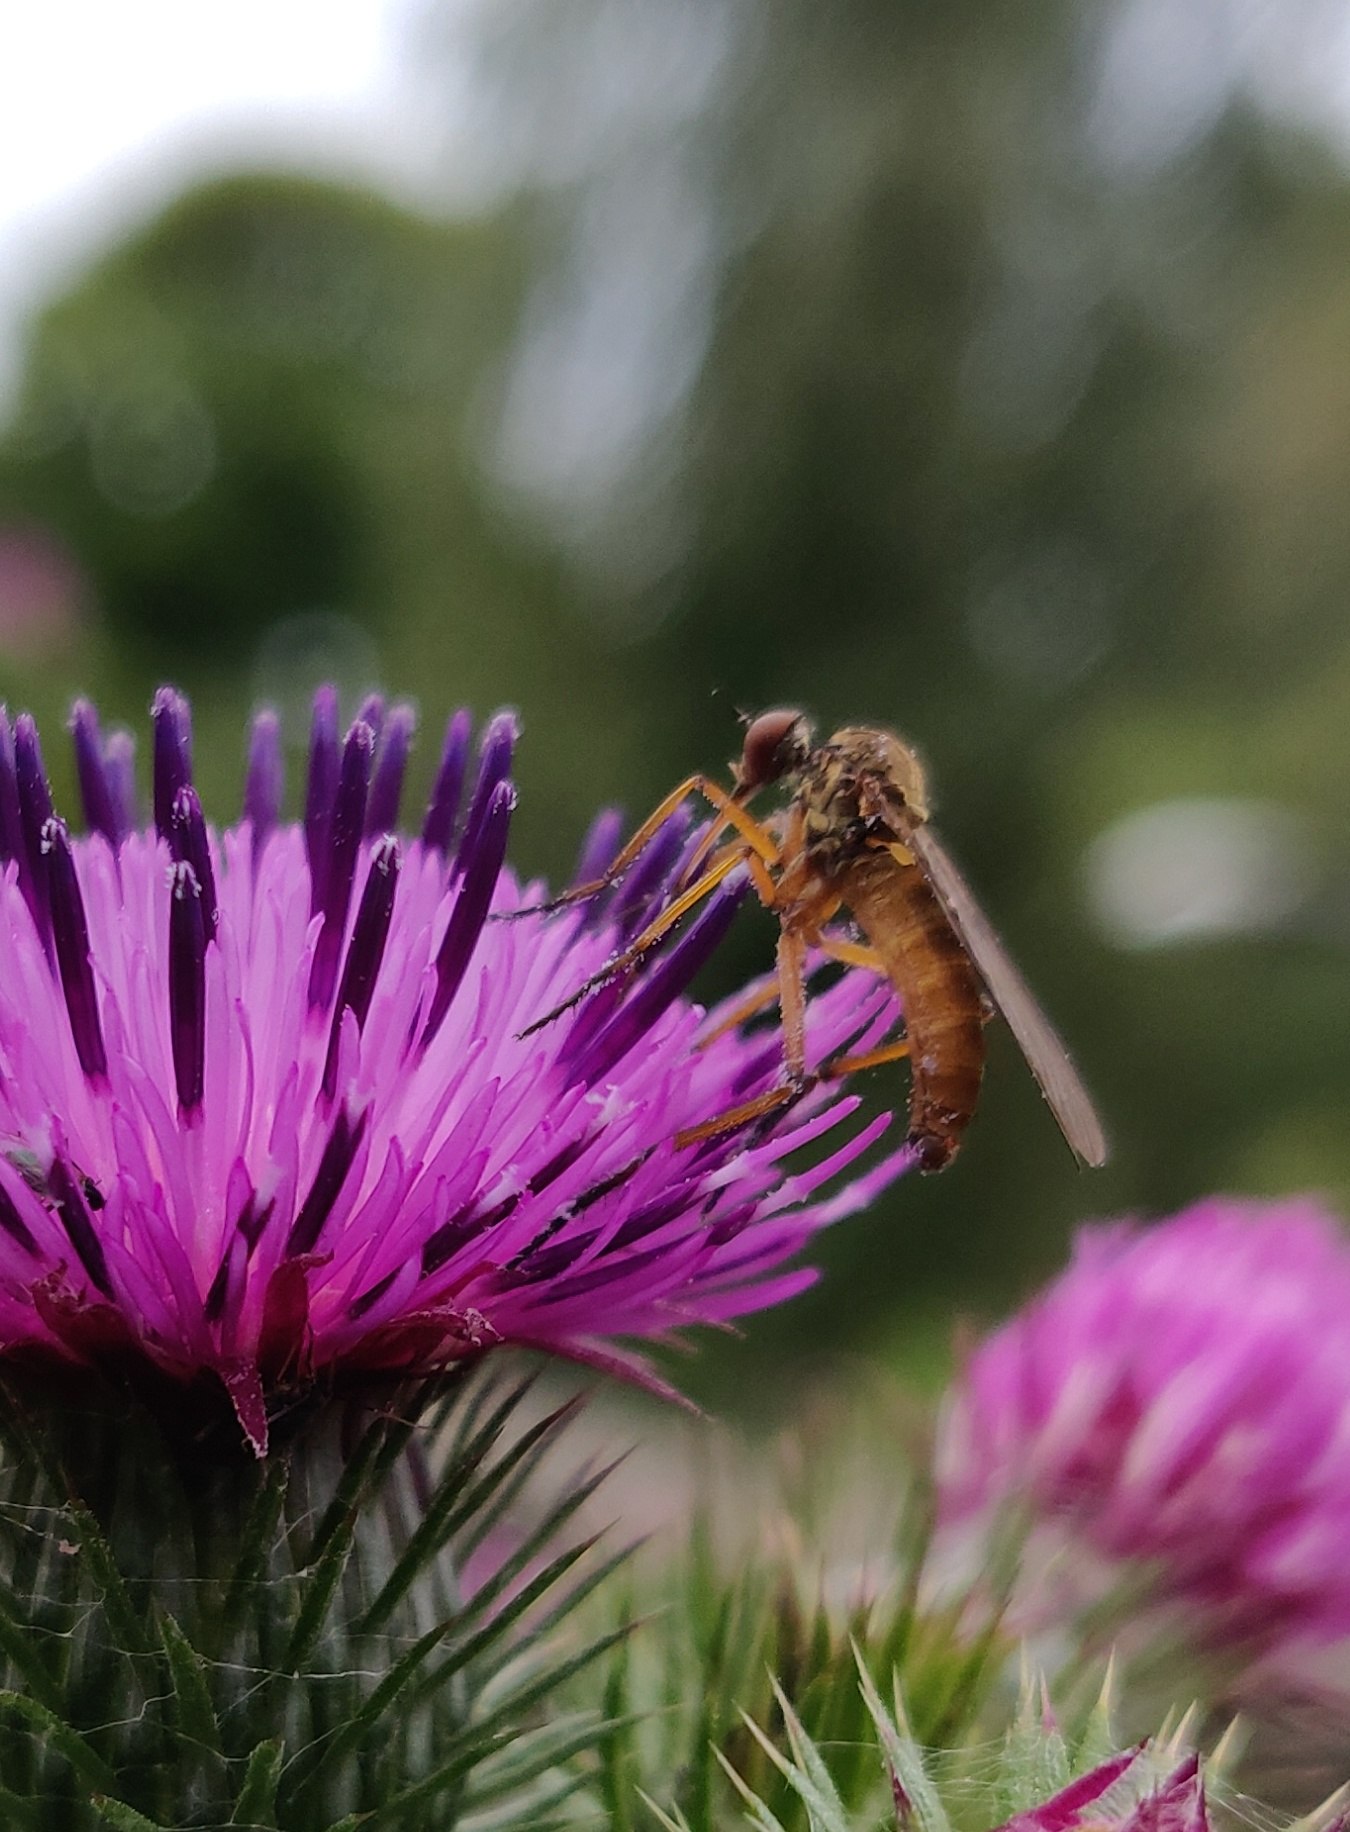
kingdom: Animalia
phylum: Arthropoda
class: Insecta
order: Diptera
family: Empididae
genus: Empis
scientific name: Empis livida
